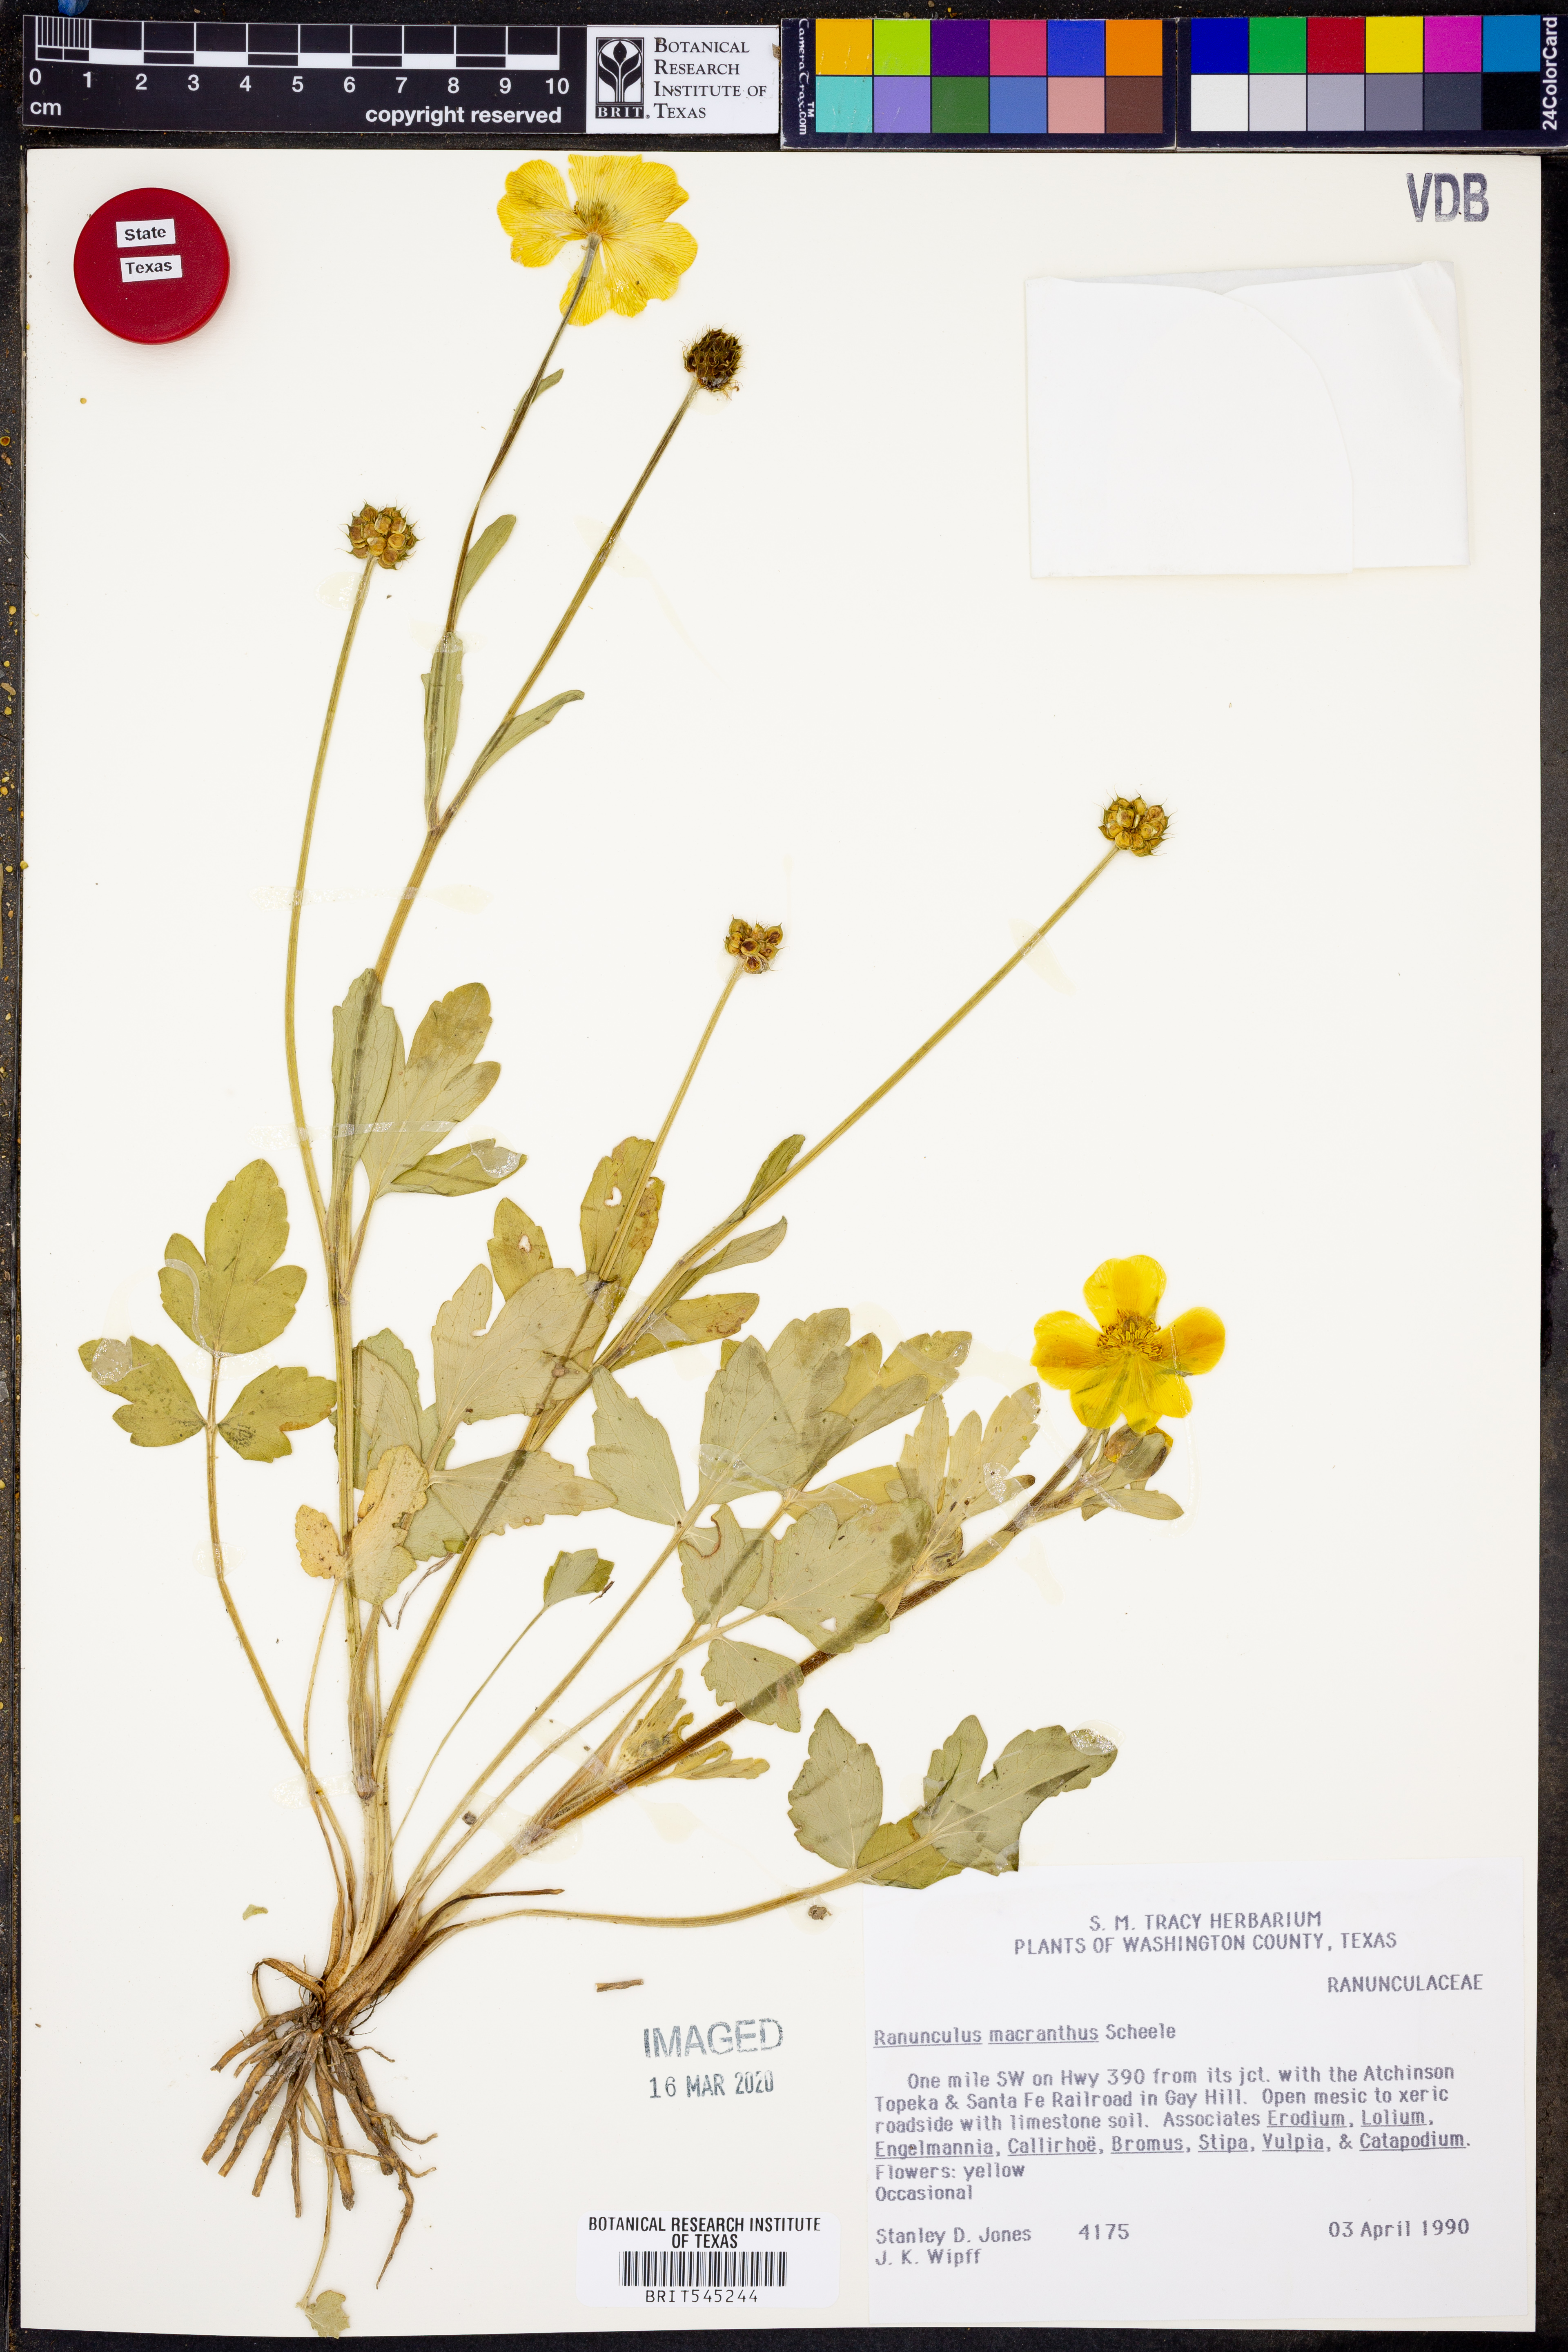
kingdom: Plantae
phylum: Tracheophyta
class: Magnoliopsida
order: Ranunculales
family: Ranunculaceae
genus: Ranunculus
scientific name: Ranunculus macranthus
